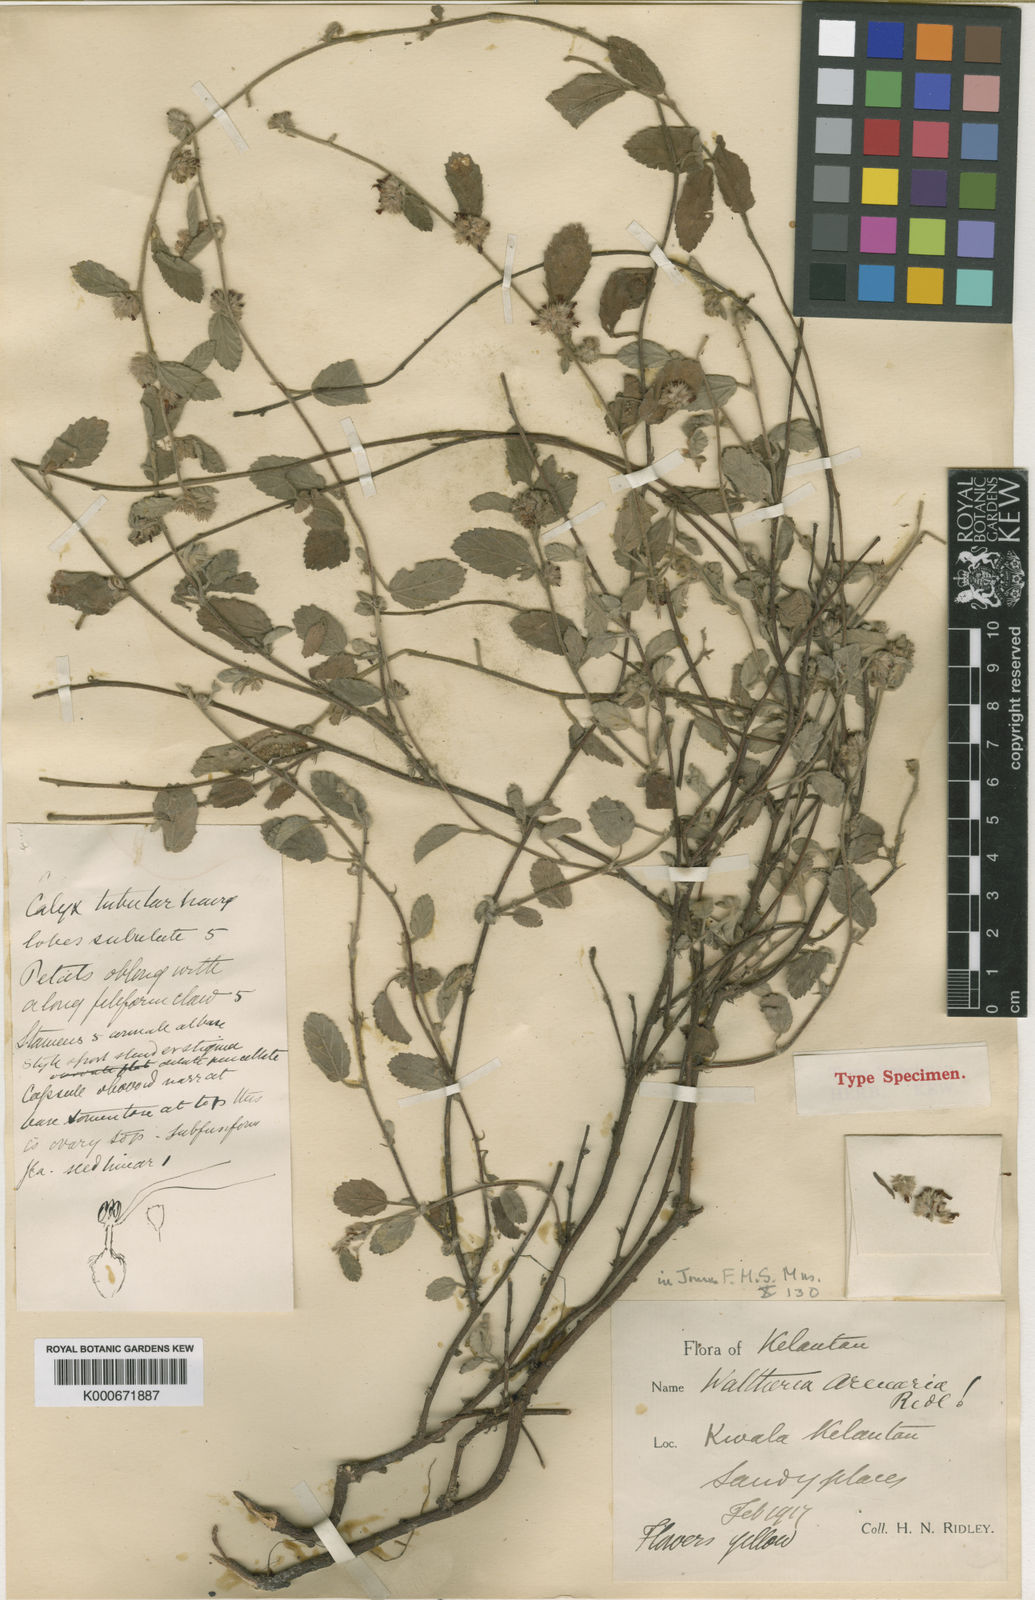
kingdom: Plantae
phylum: Tracheophyta
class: Magnoliopsida
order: Malvales
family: Malvaceae
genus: Waltheria
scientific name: Waltheria arenaria
